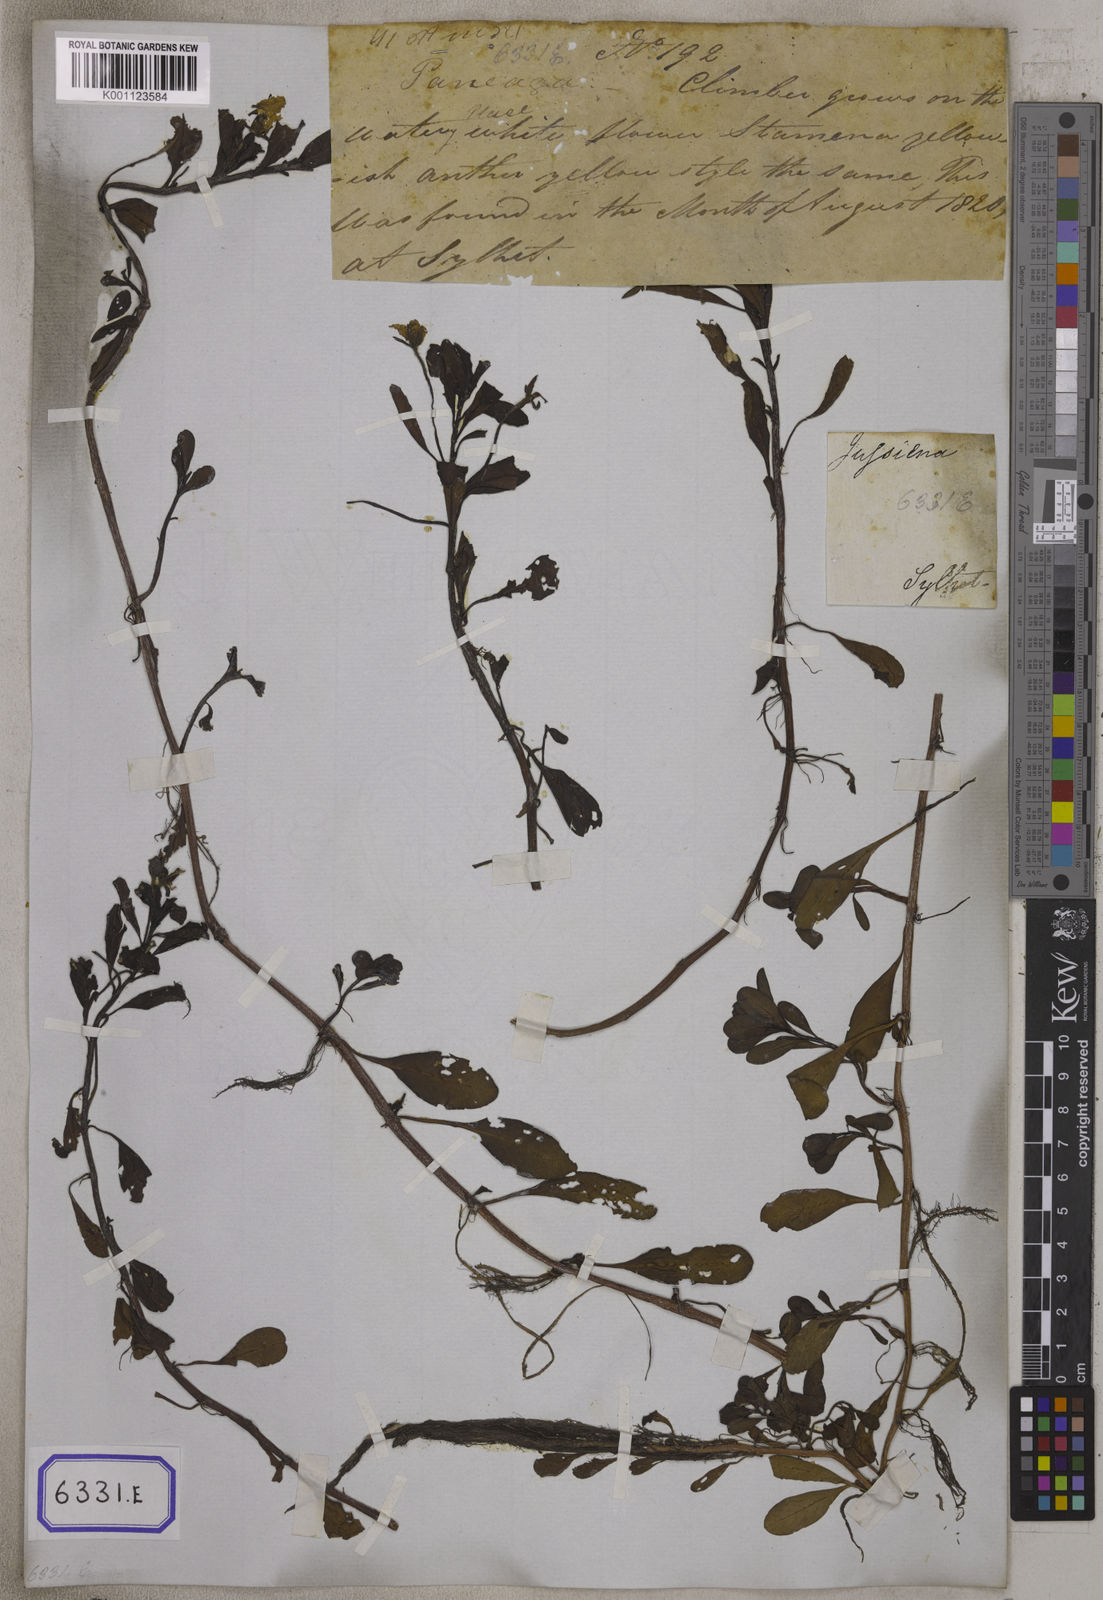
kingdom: Plantae
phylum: Tracheophyta
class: Magnoliopsida
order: Myrtales
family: Onagraceae
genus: Ludwigia
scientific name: Ludwigia adscendens
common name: Creeping water primrose
